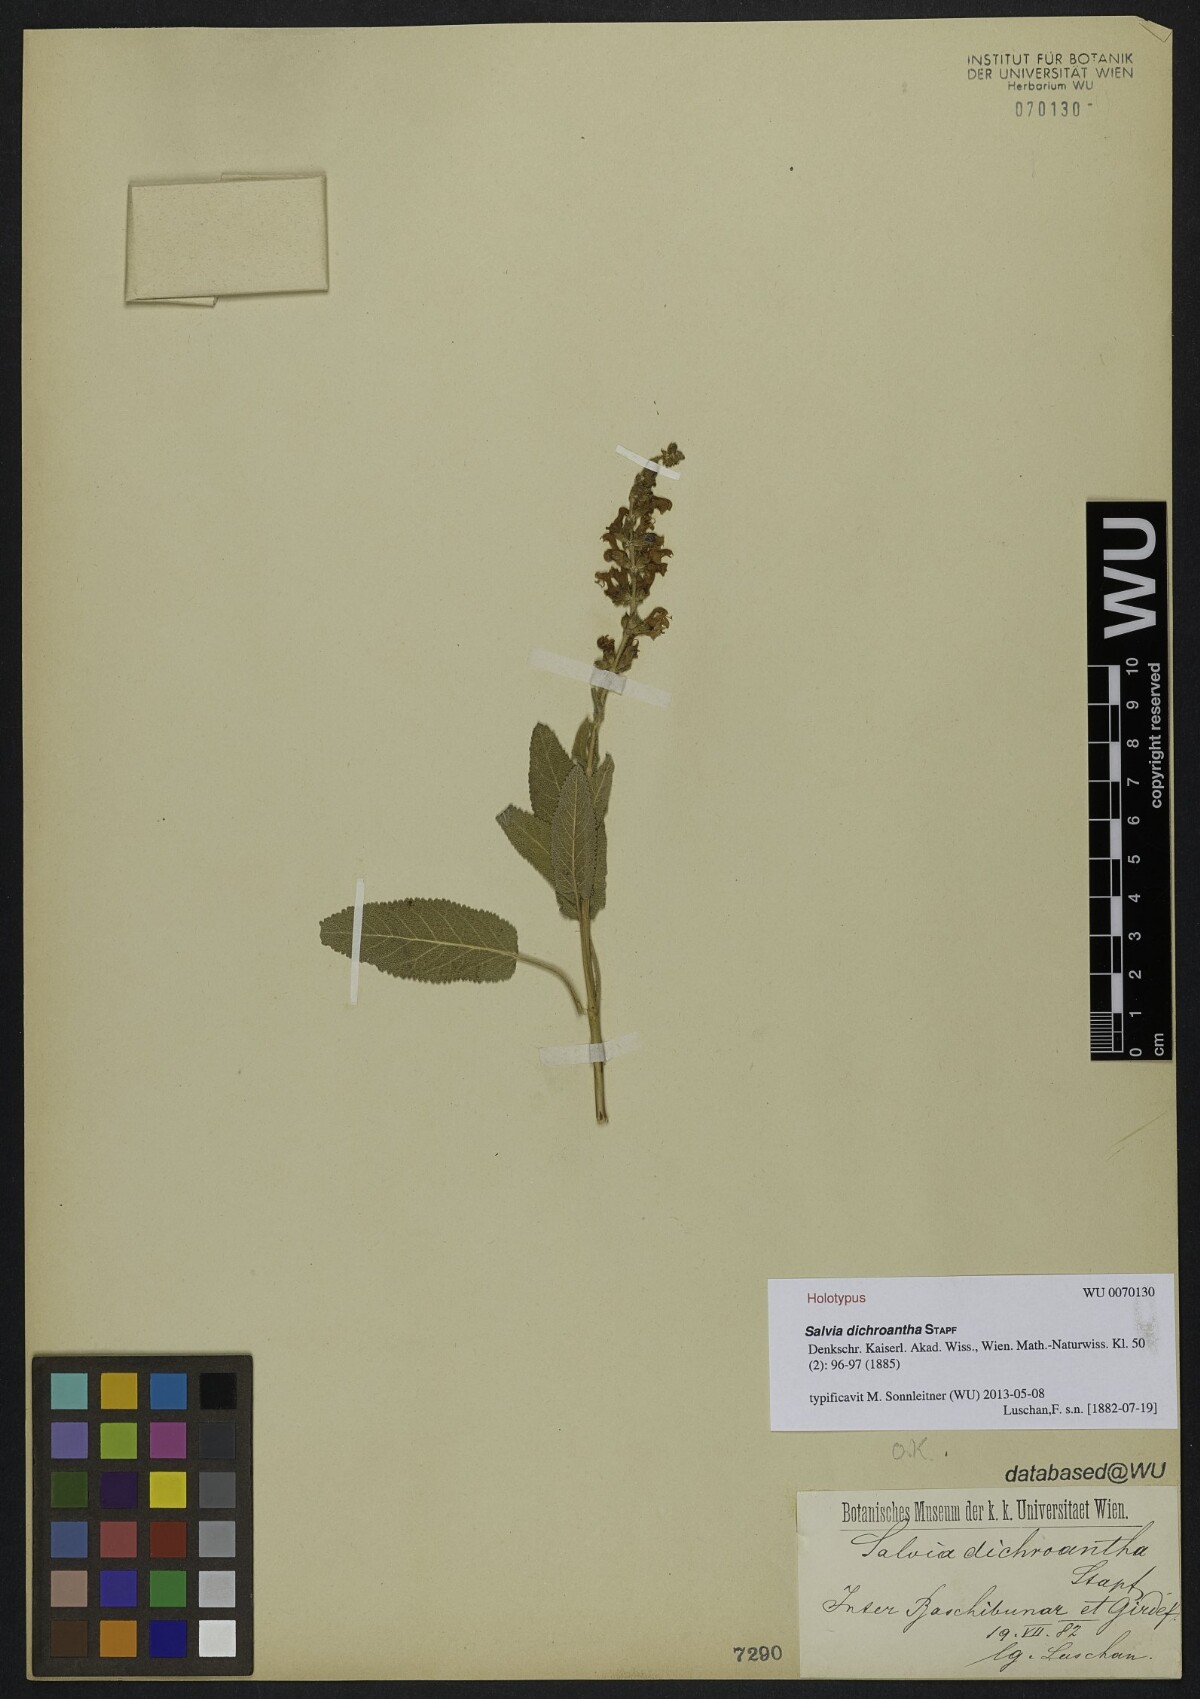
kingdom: Plantae
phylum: Tracheophyta
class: Magnoliopsida
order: Lamiales
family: Lamiaceae
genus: Salvia
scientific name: Salvia dichroantha
